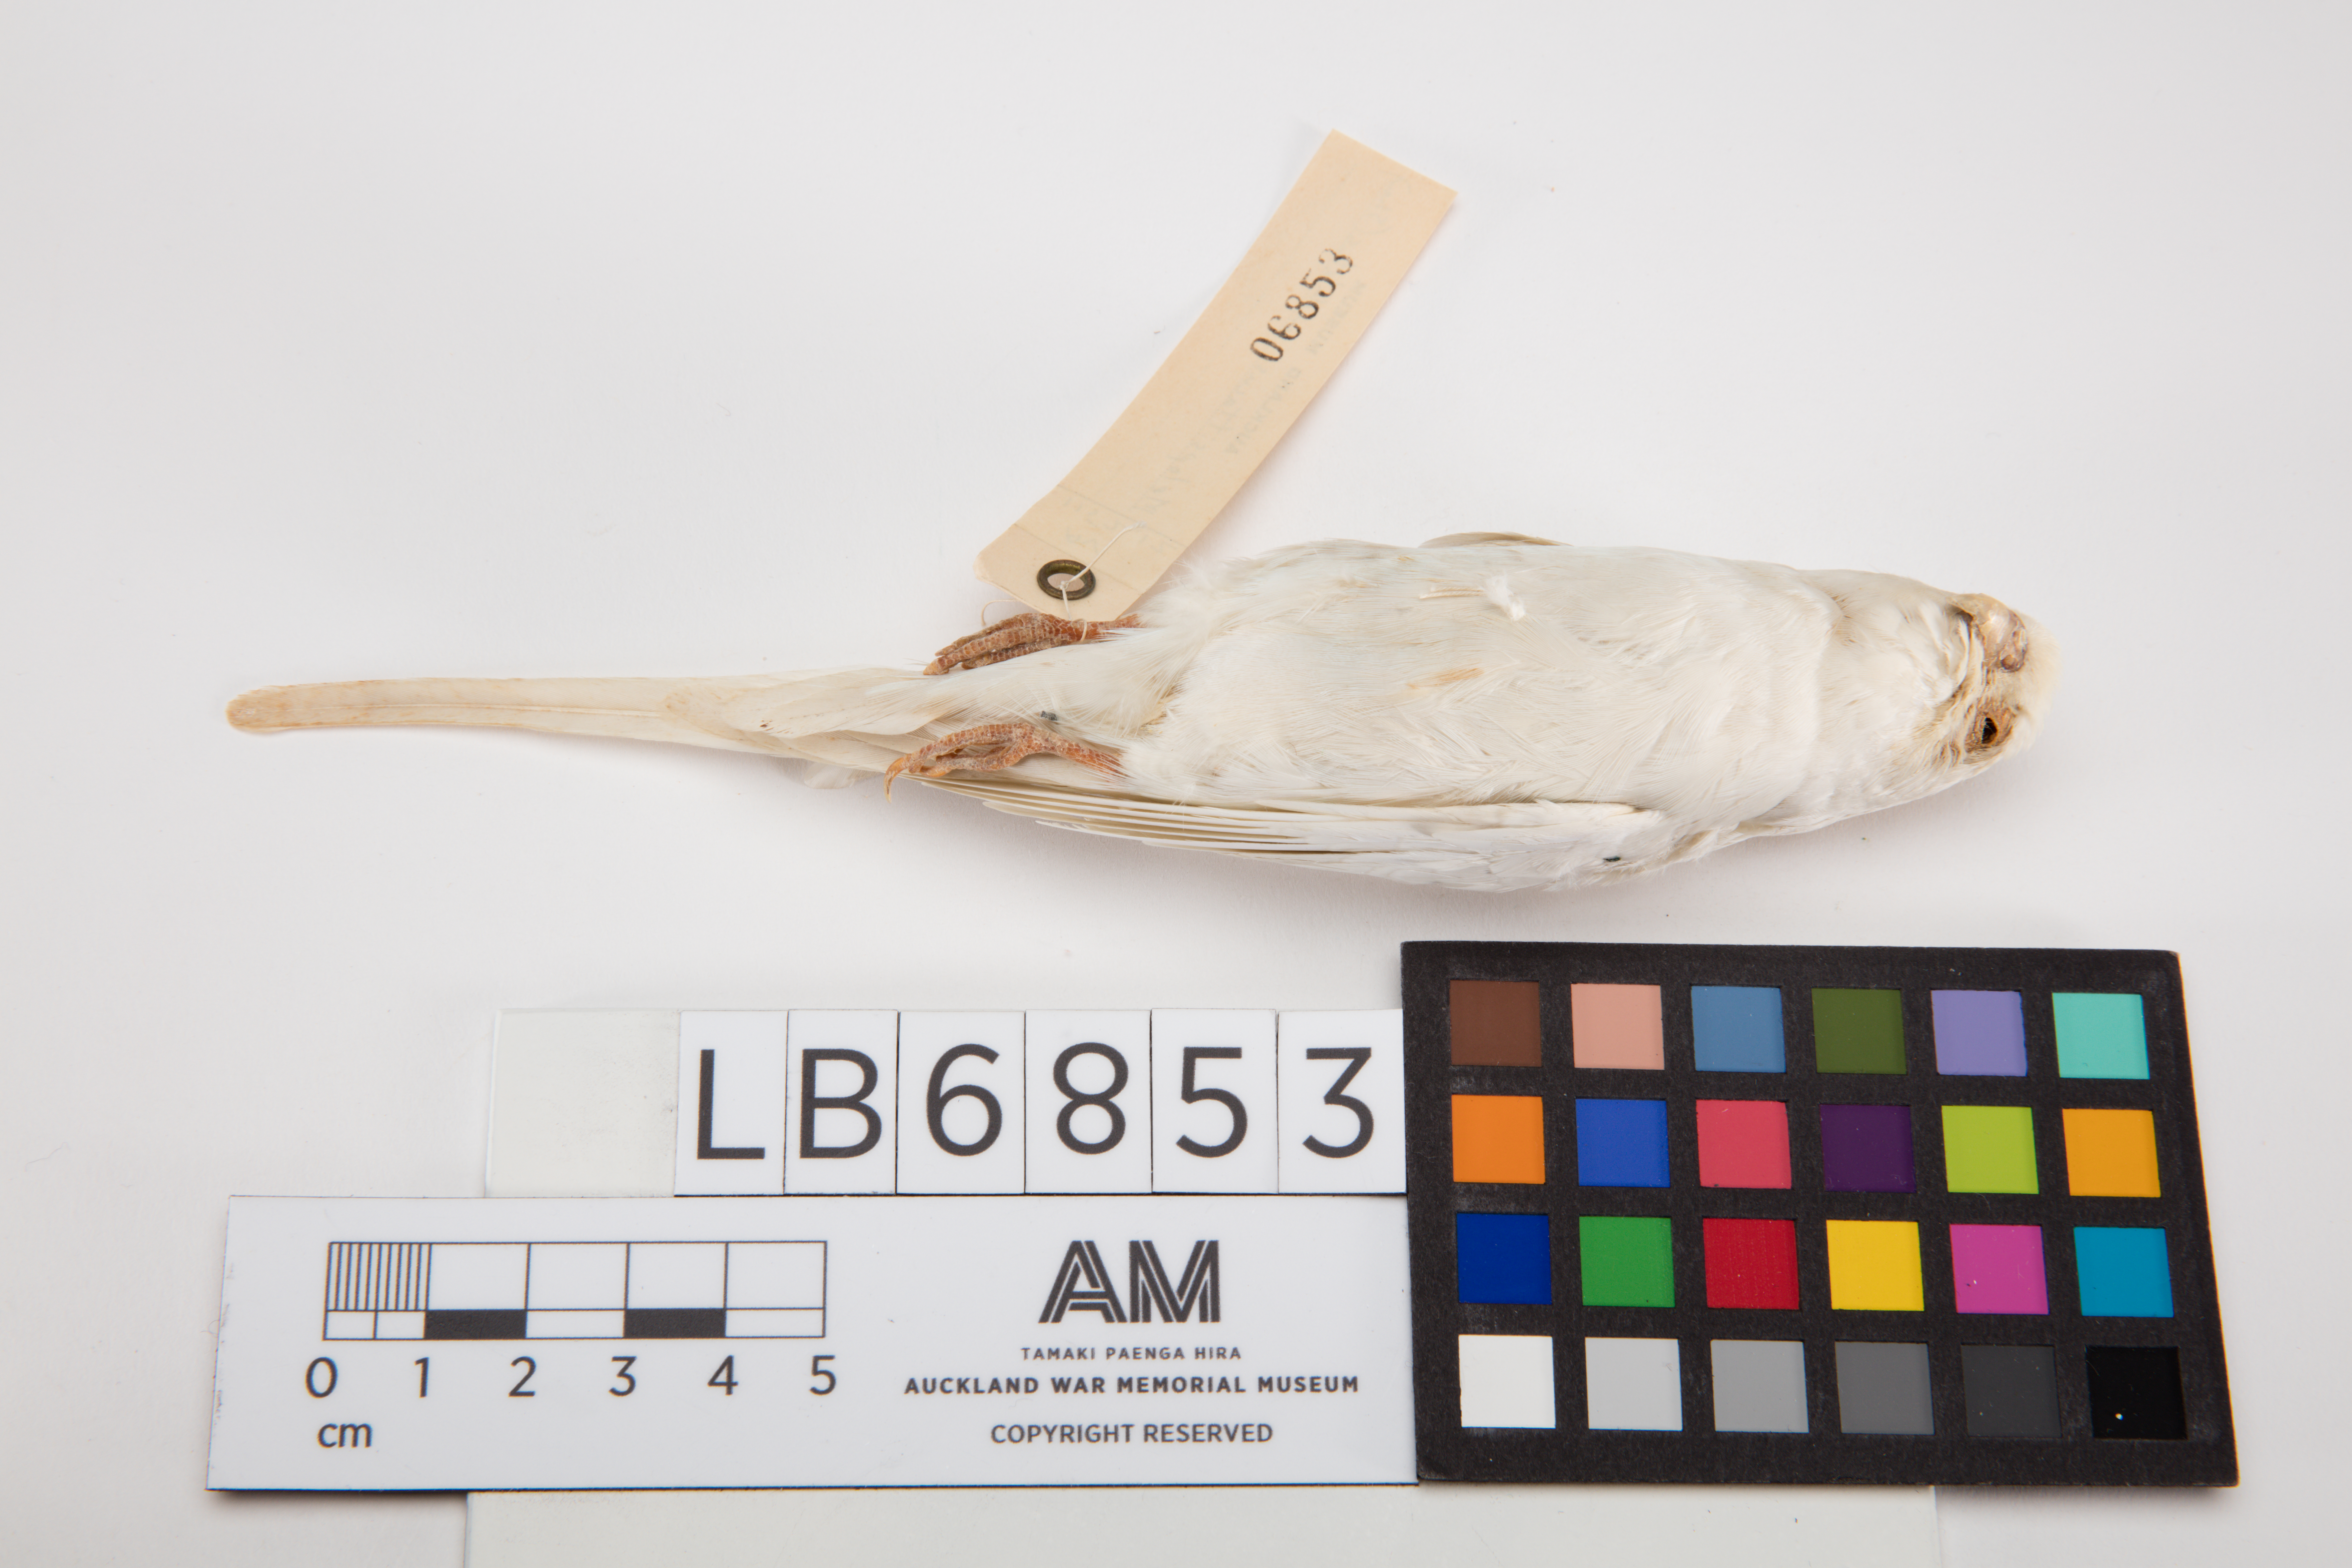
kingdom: Animalia
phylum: Chordata
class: Aves
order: Psittaciformes
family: Psittacidae
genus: Melopsittacus
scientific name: Melopsittacus undulatus
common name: Budgerigar
